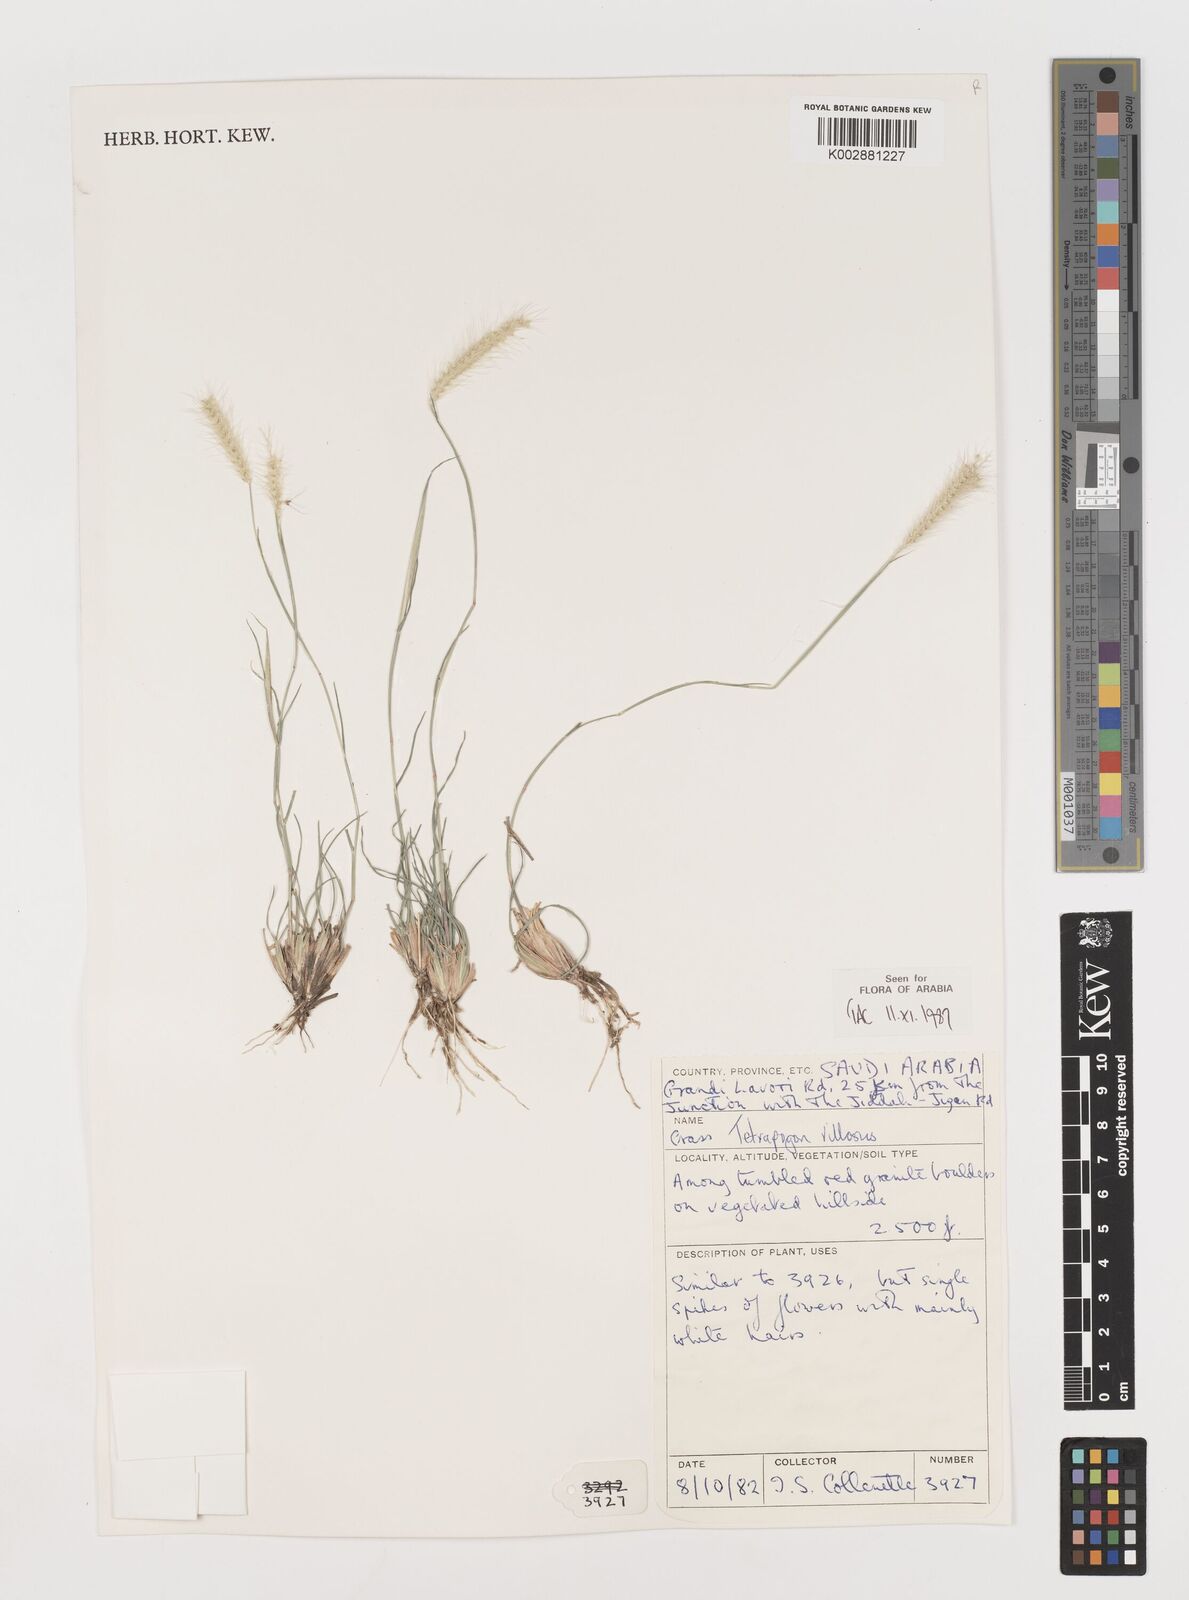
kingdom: Plantae
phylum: Tracheophyta
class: Liliopsida
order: Poales
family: Poaceae
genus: Tetrapogon
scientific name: Tetrapogon villosus
